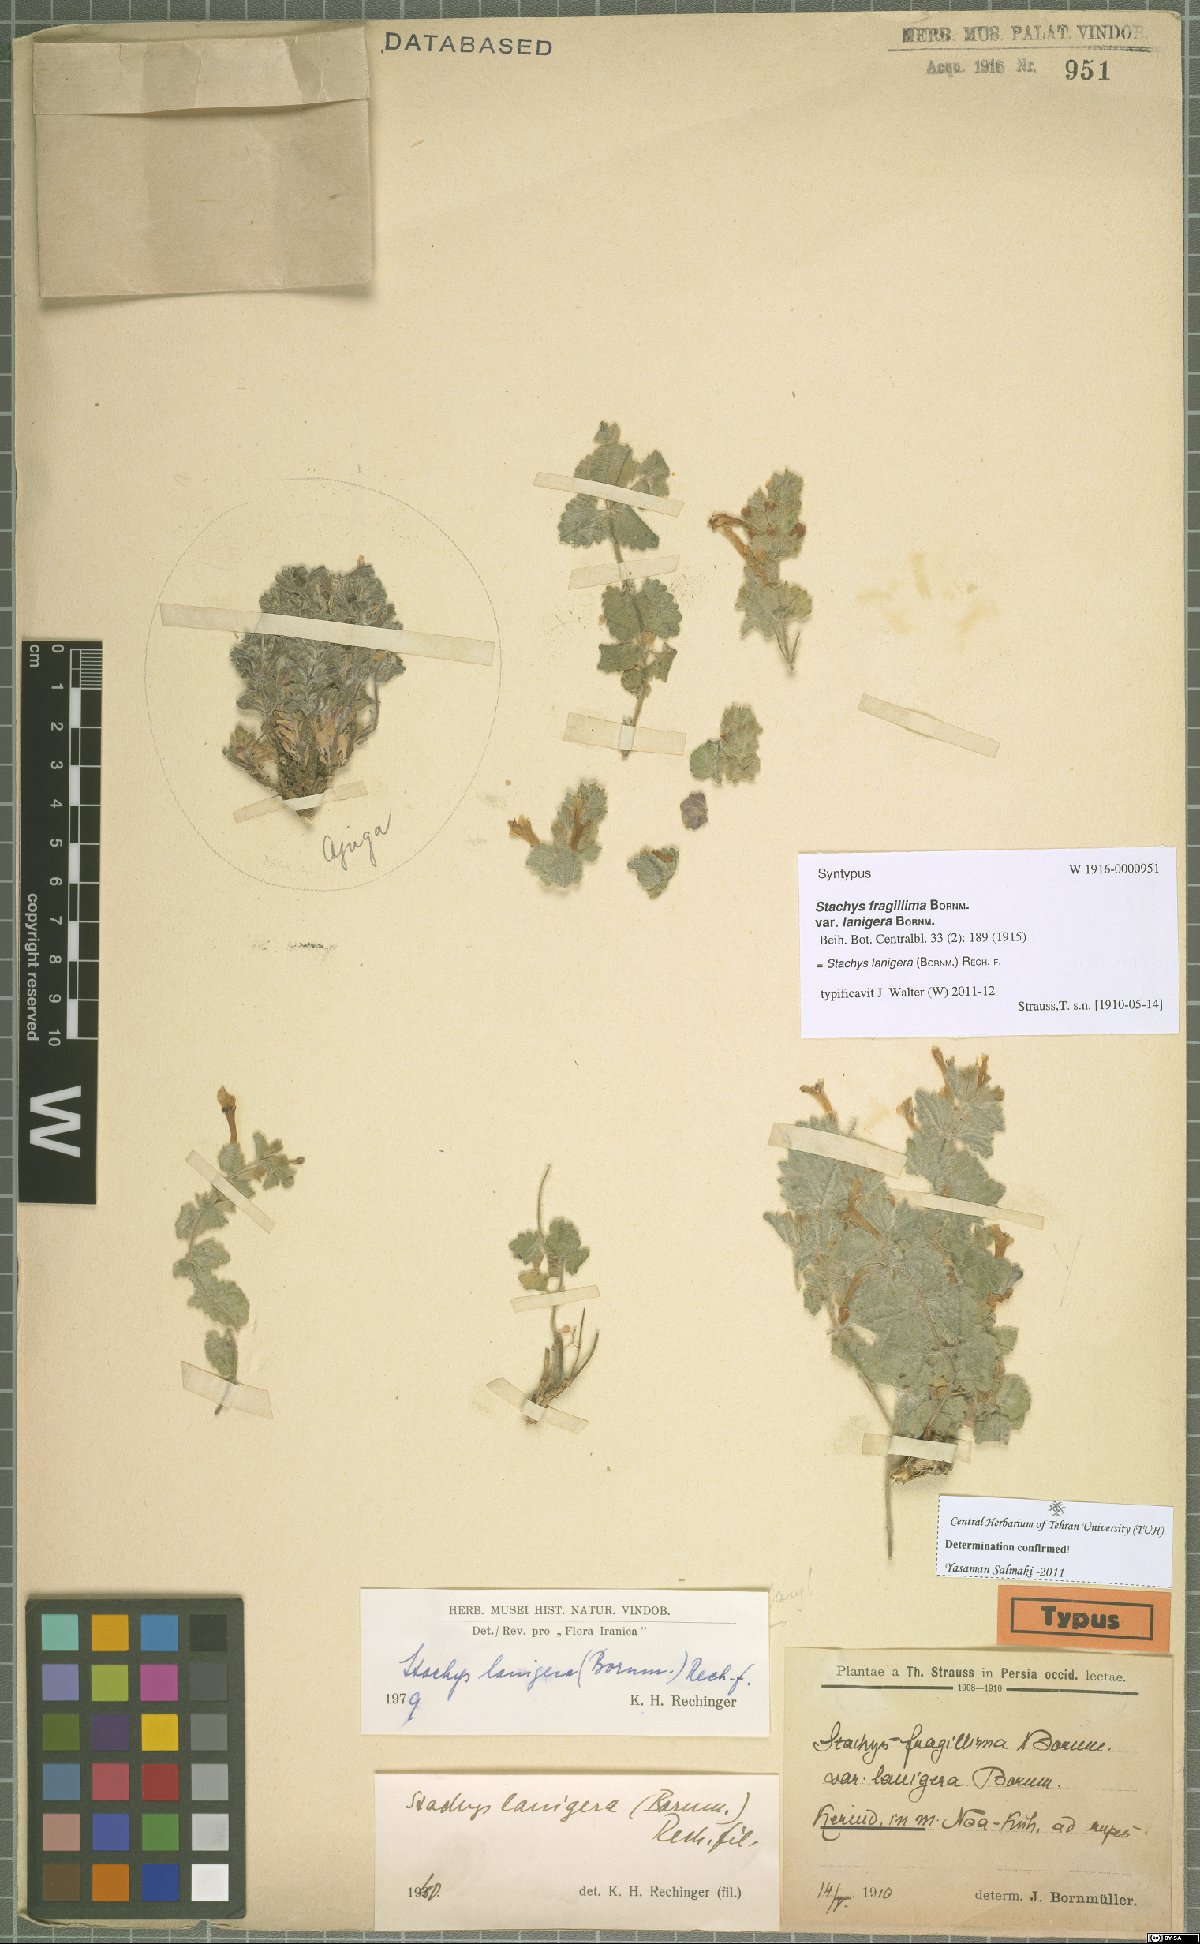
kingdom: Plantae
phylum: Tracheophyta
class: Magnoliopsida
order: Lamiales
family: Lamiaceae
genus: Stachys
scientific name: Stachys lanigera
